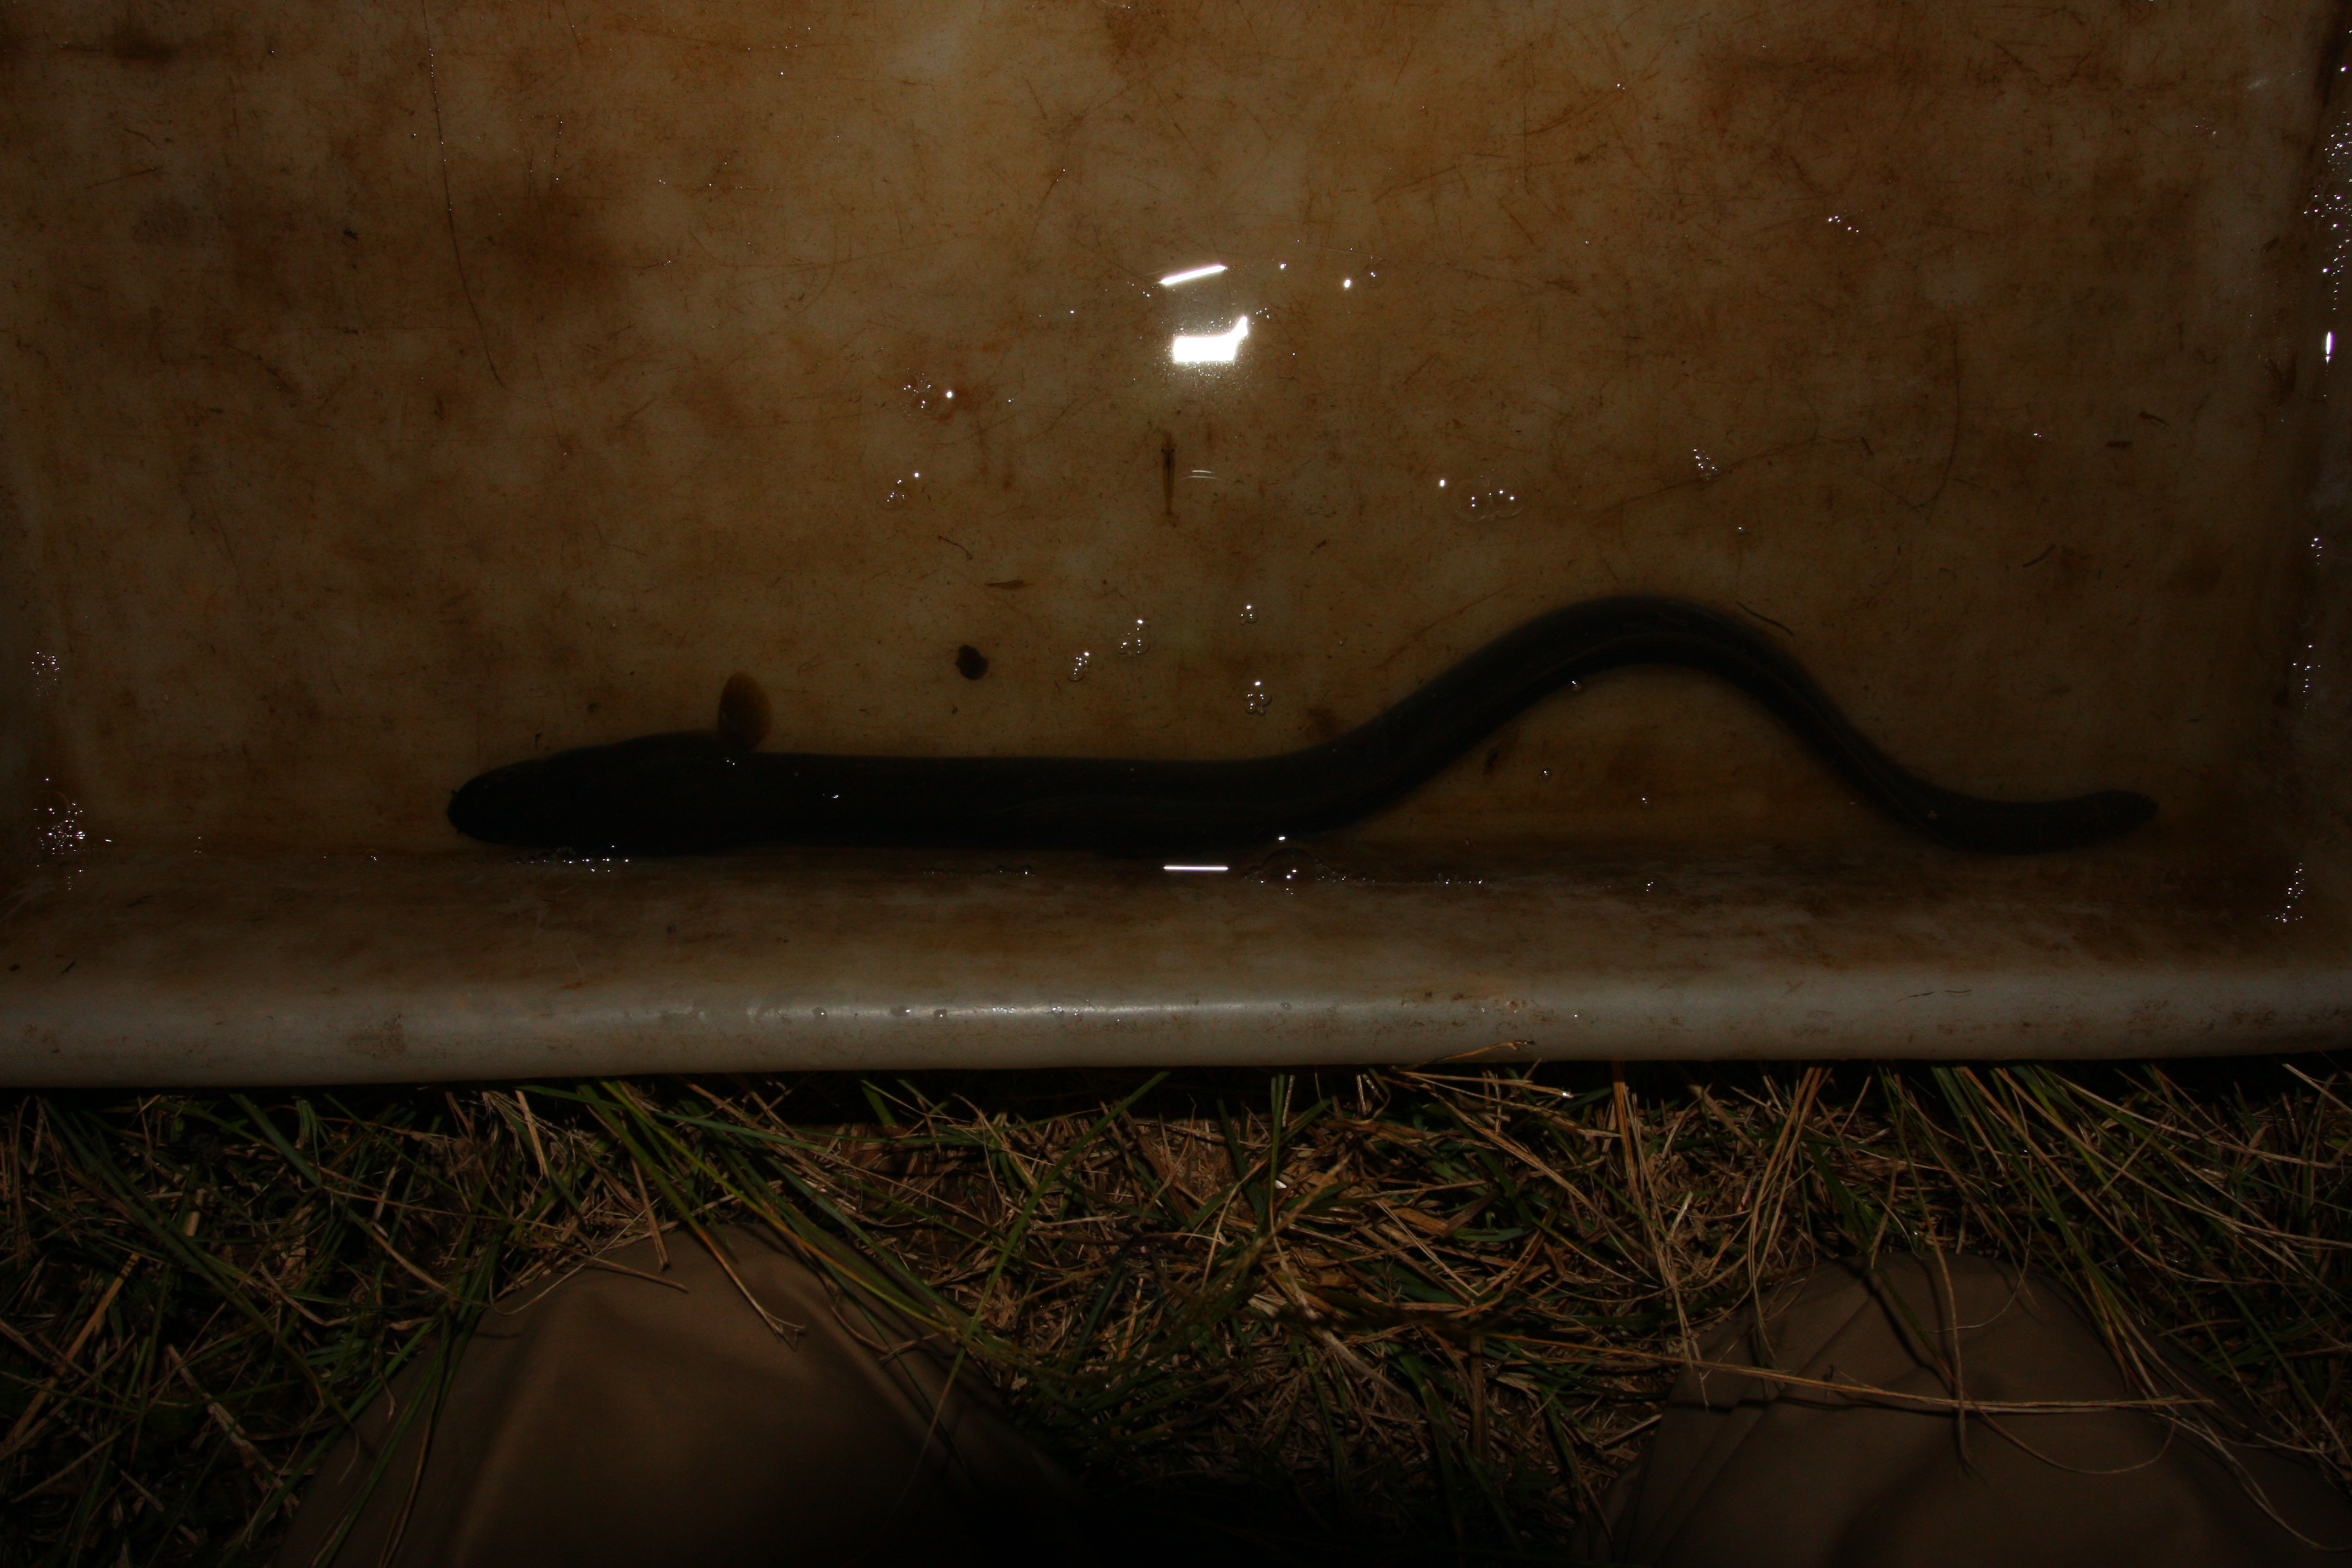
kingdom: Animalia
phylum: Chordata
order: Anguilliformes
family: Anguillidae
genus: Anguilla
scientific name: Anguilla mossambica
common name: African longfin eel
